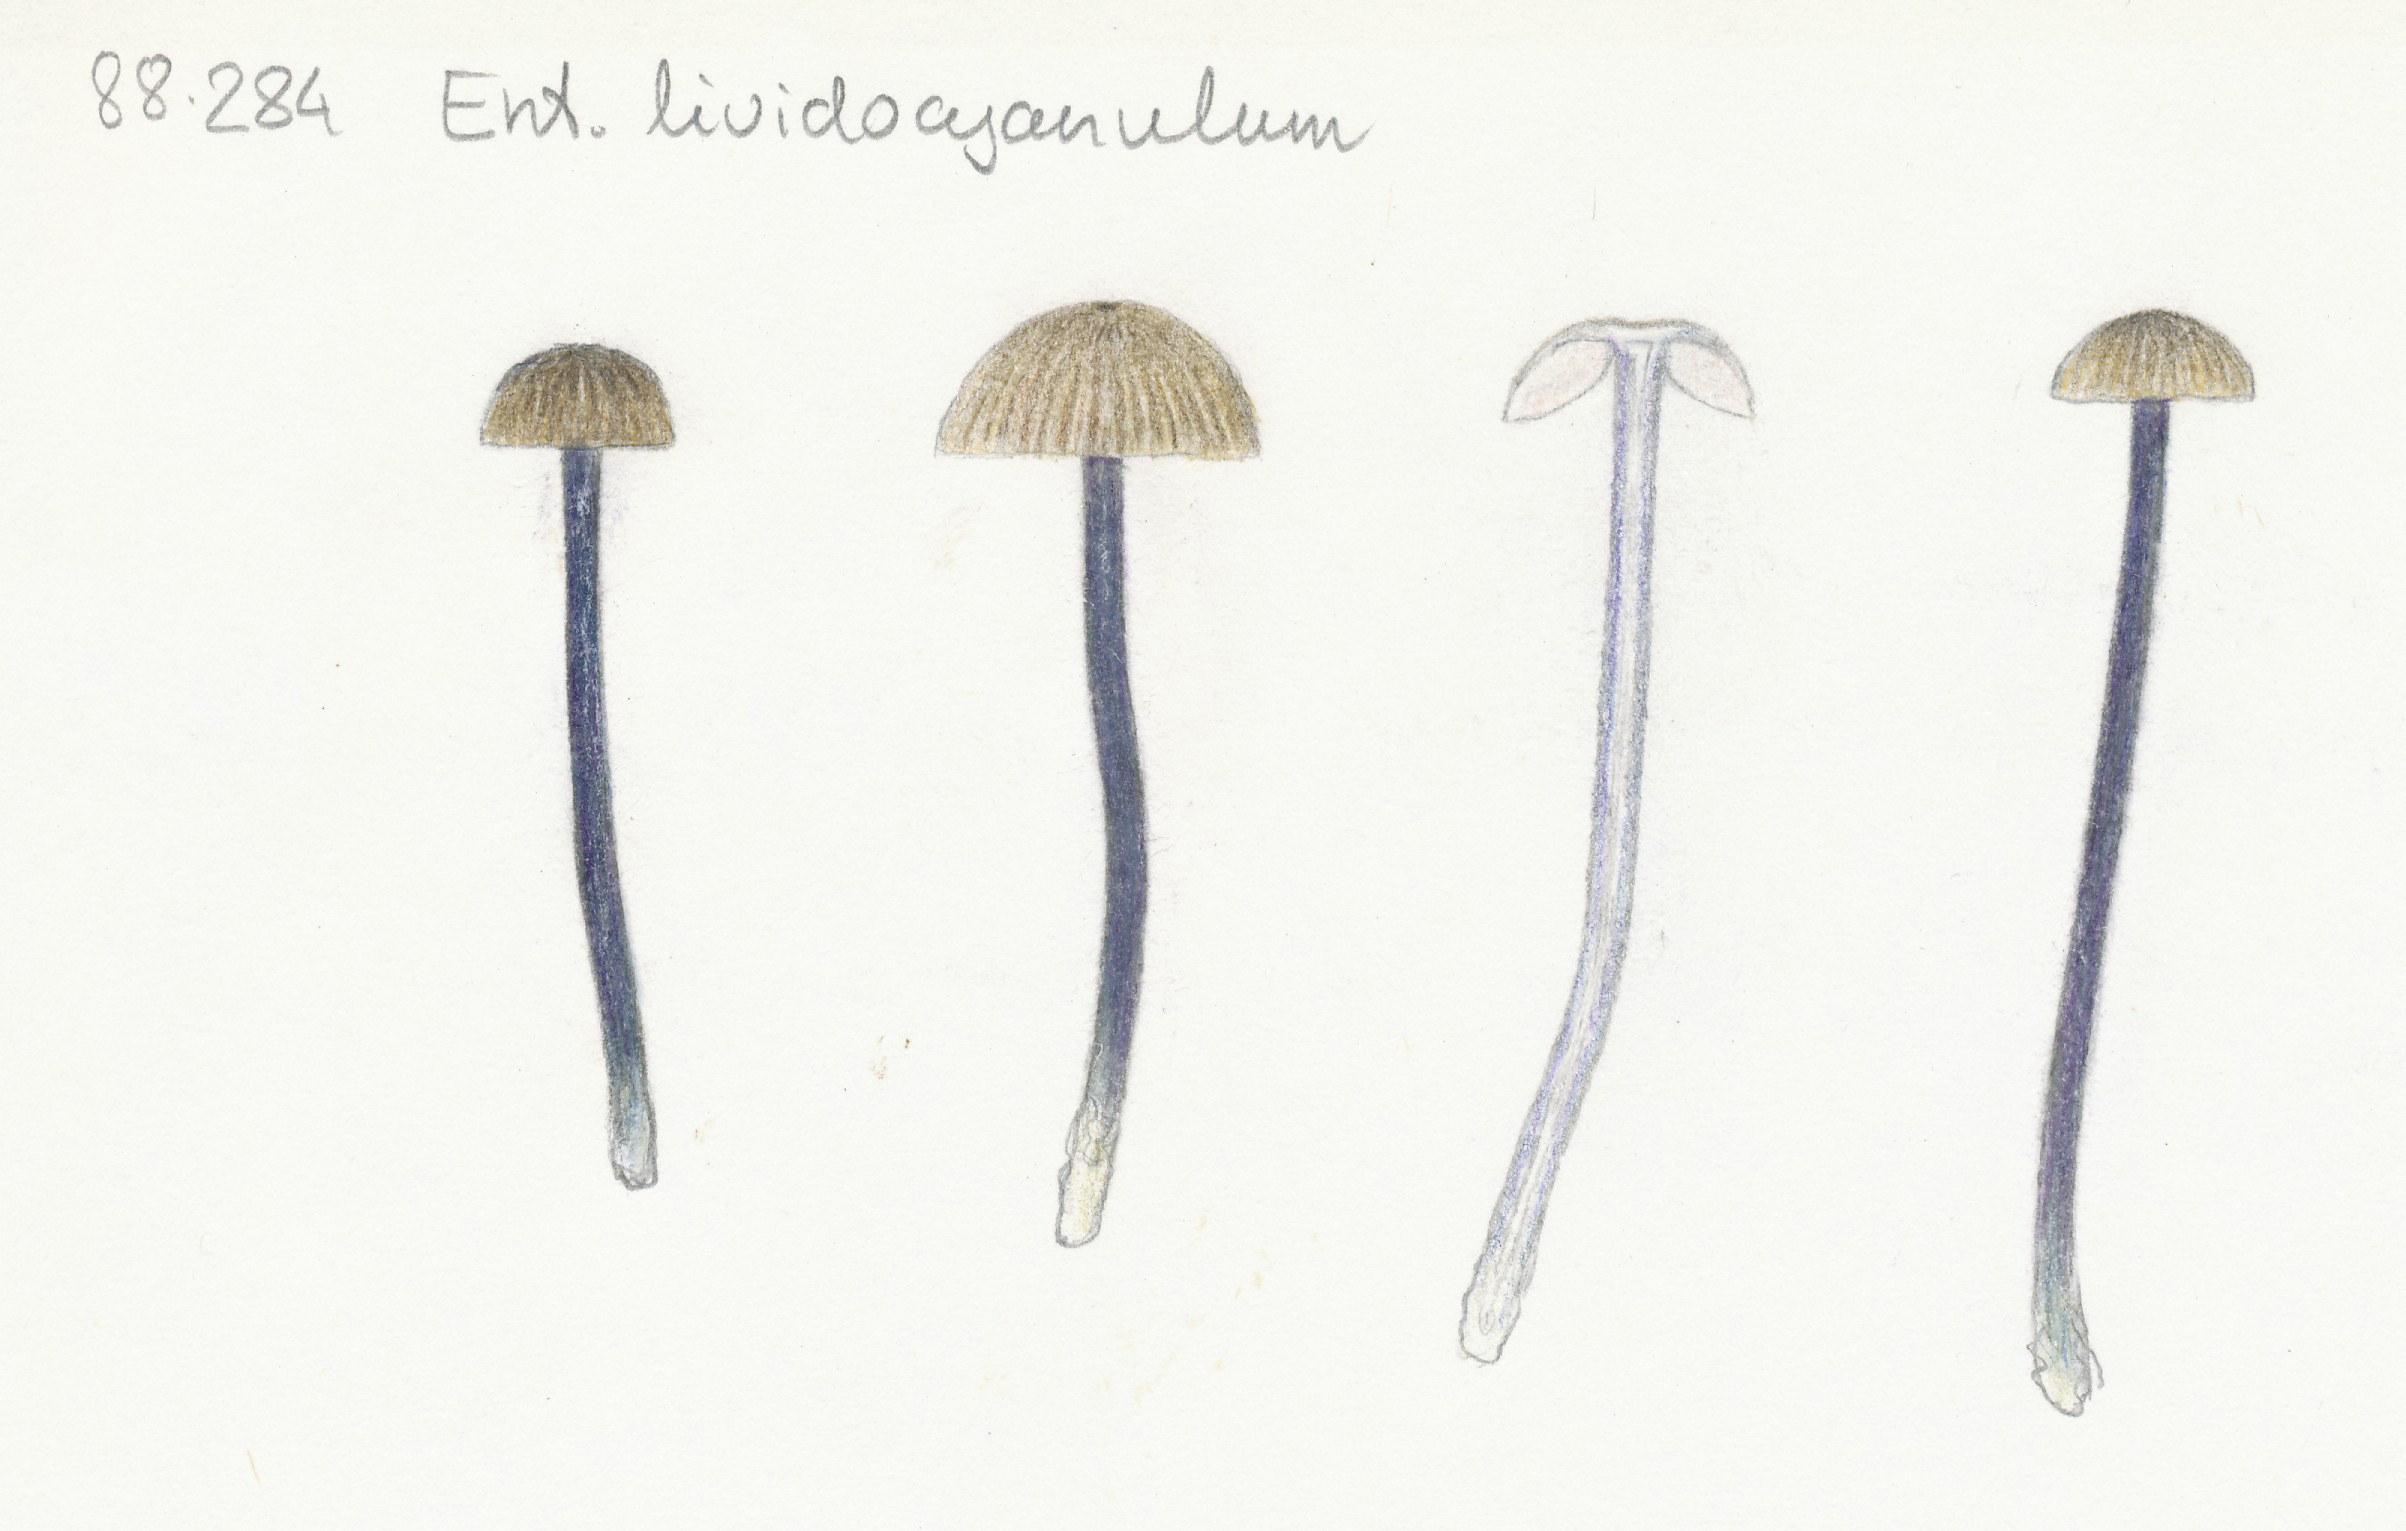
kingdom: Fungi
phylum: Basidiomycota
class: Agaricomycetes
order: Agaricales
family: Entolomataceae
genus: Entoloma
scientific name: Entoloma lividocyanulum
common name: mørkøjet rødblad
